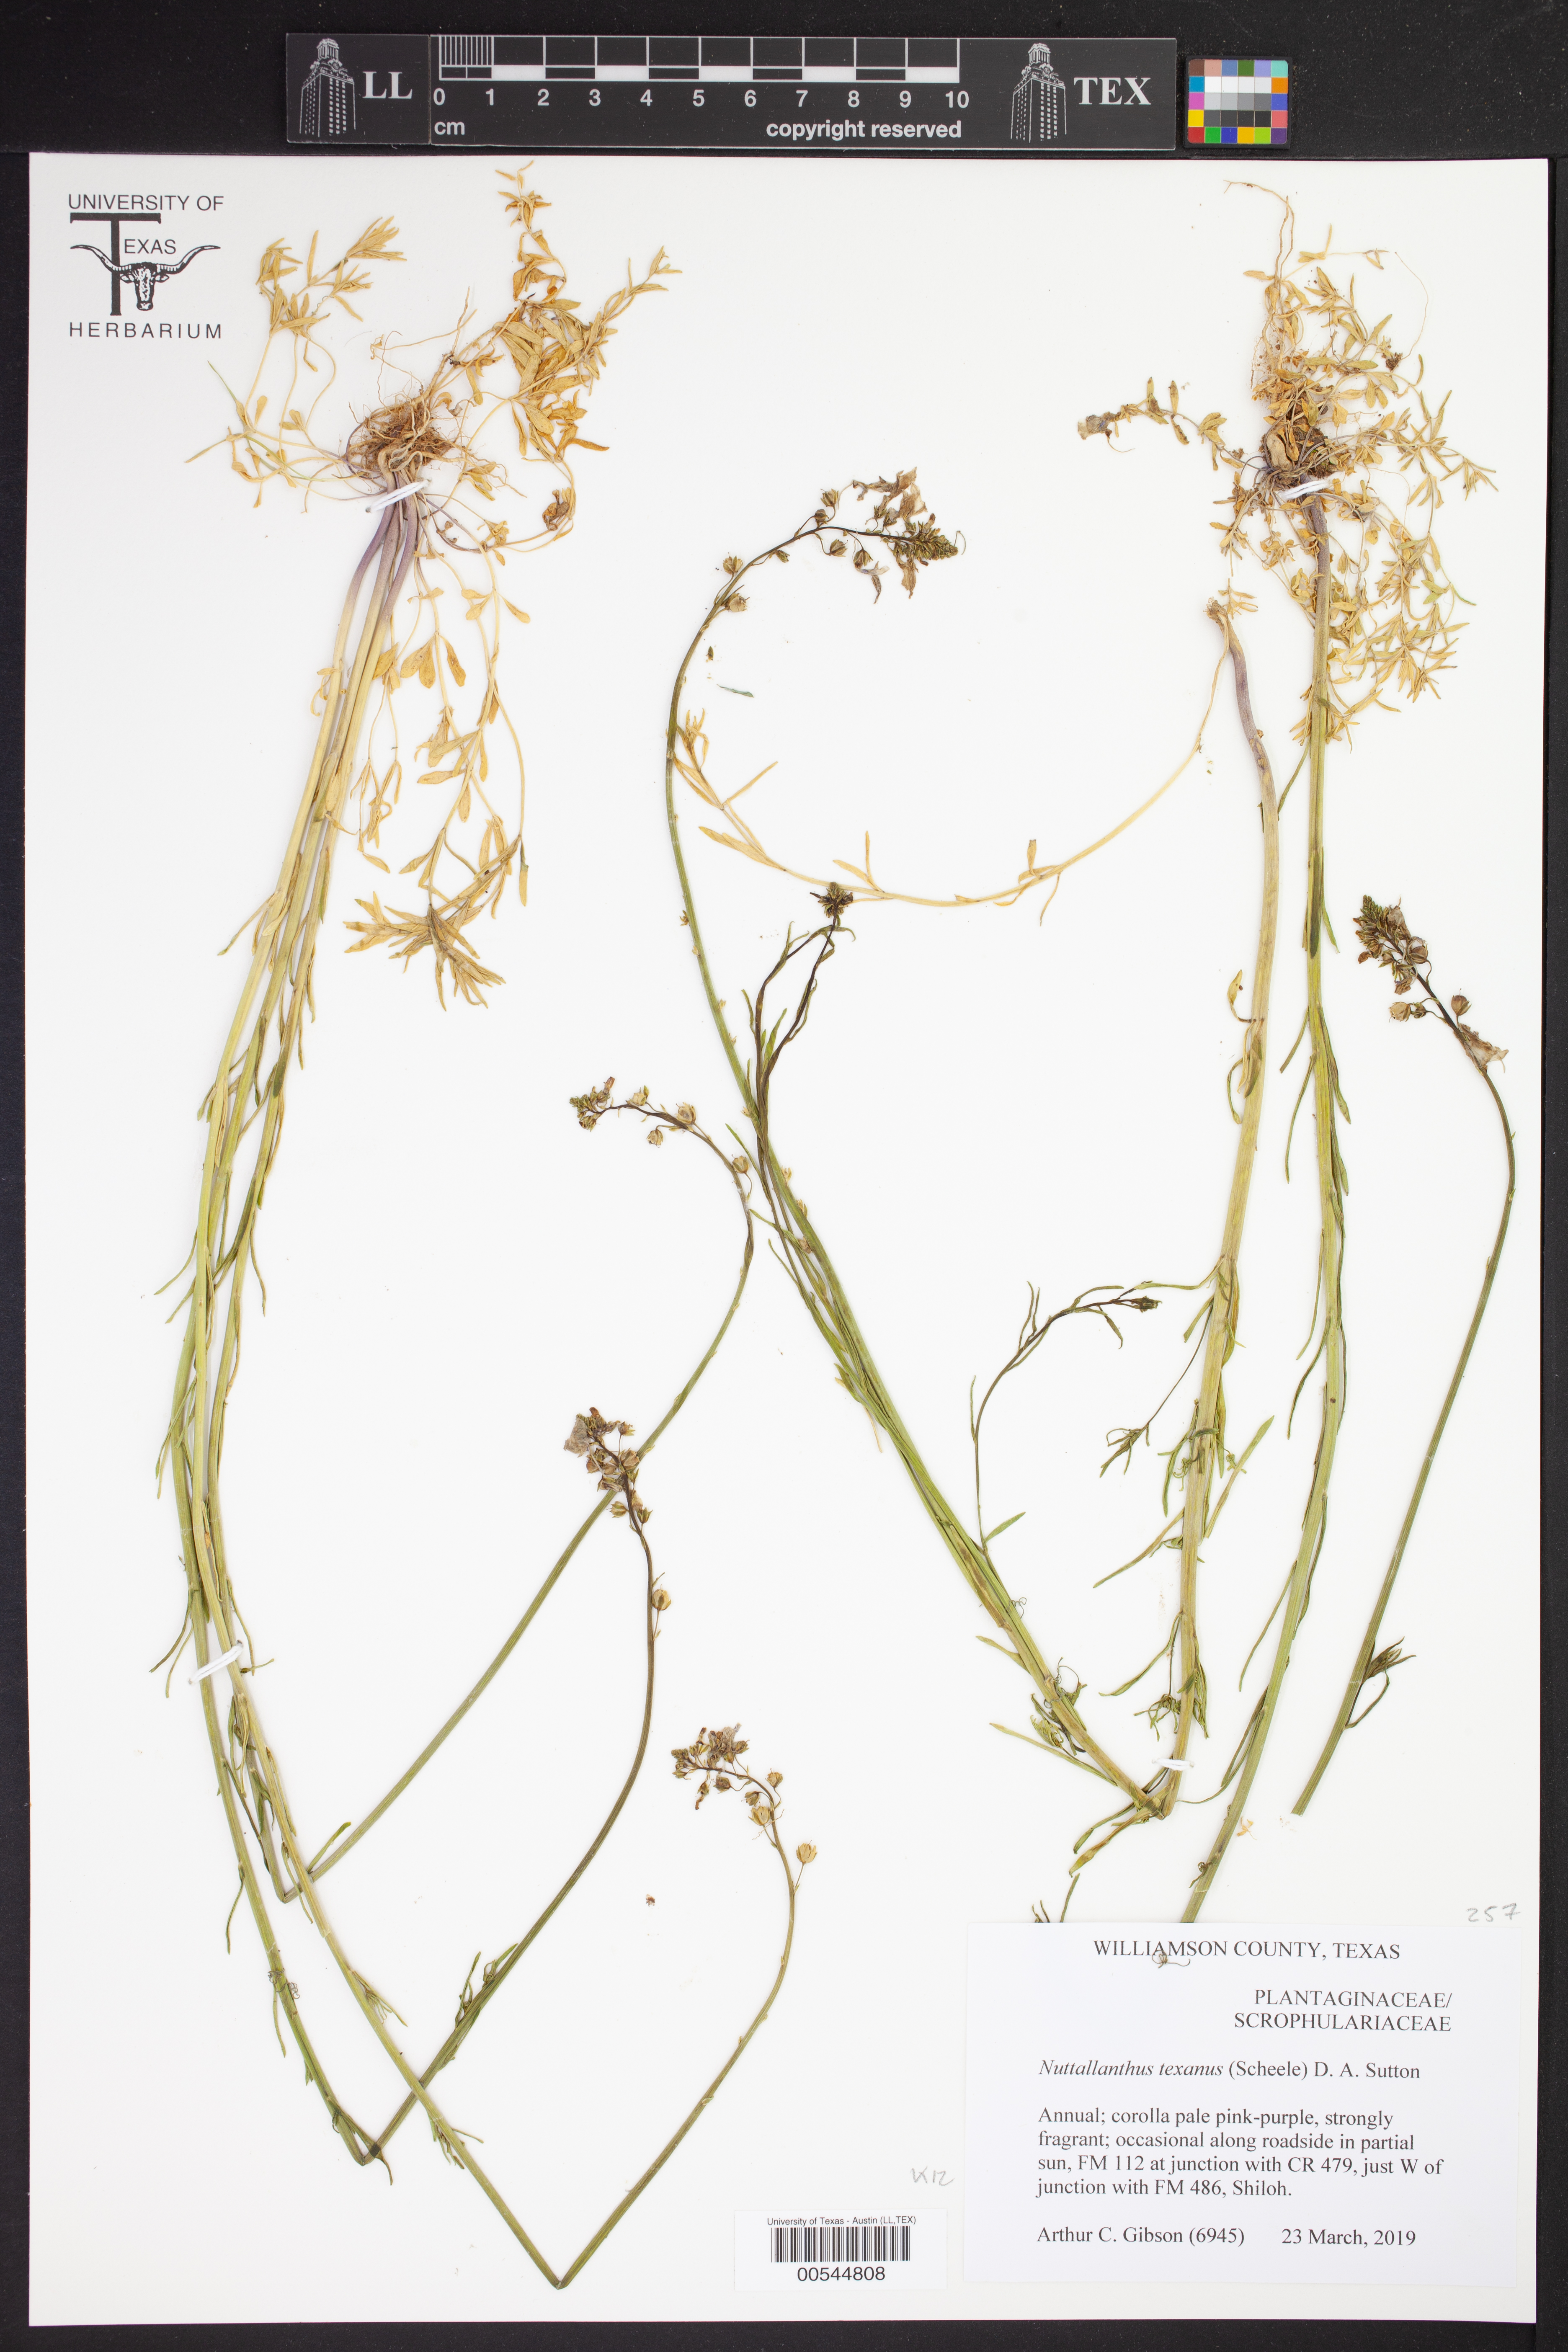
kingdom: Plantae
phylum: Tracheophyta
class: Magnoliopsida
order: Lamiales
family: Plantaginaceae
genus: Nuttallanthus
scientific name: Nuttallanthus texanus
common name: Texas toadflax
